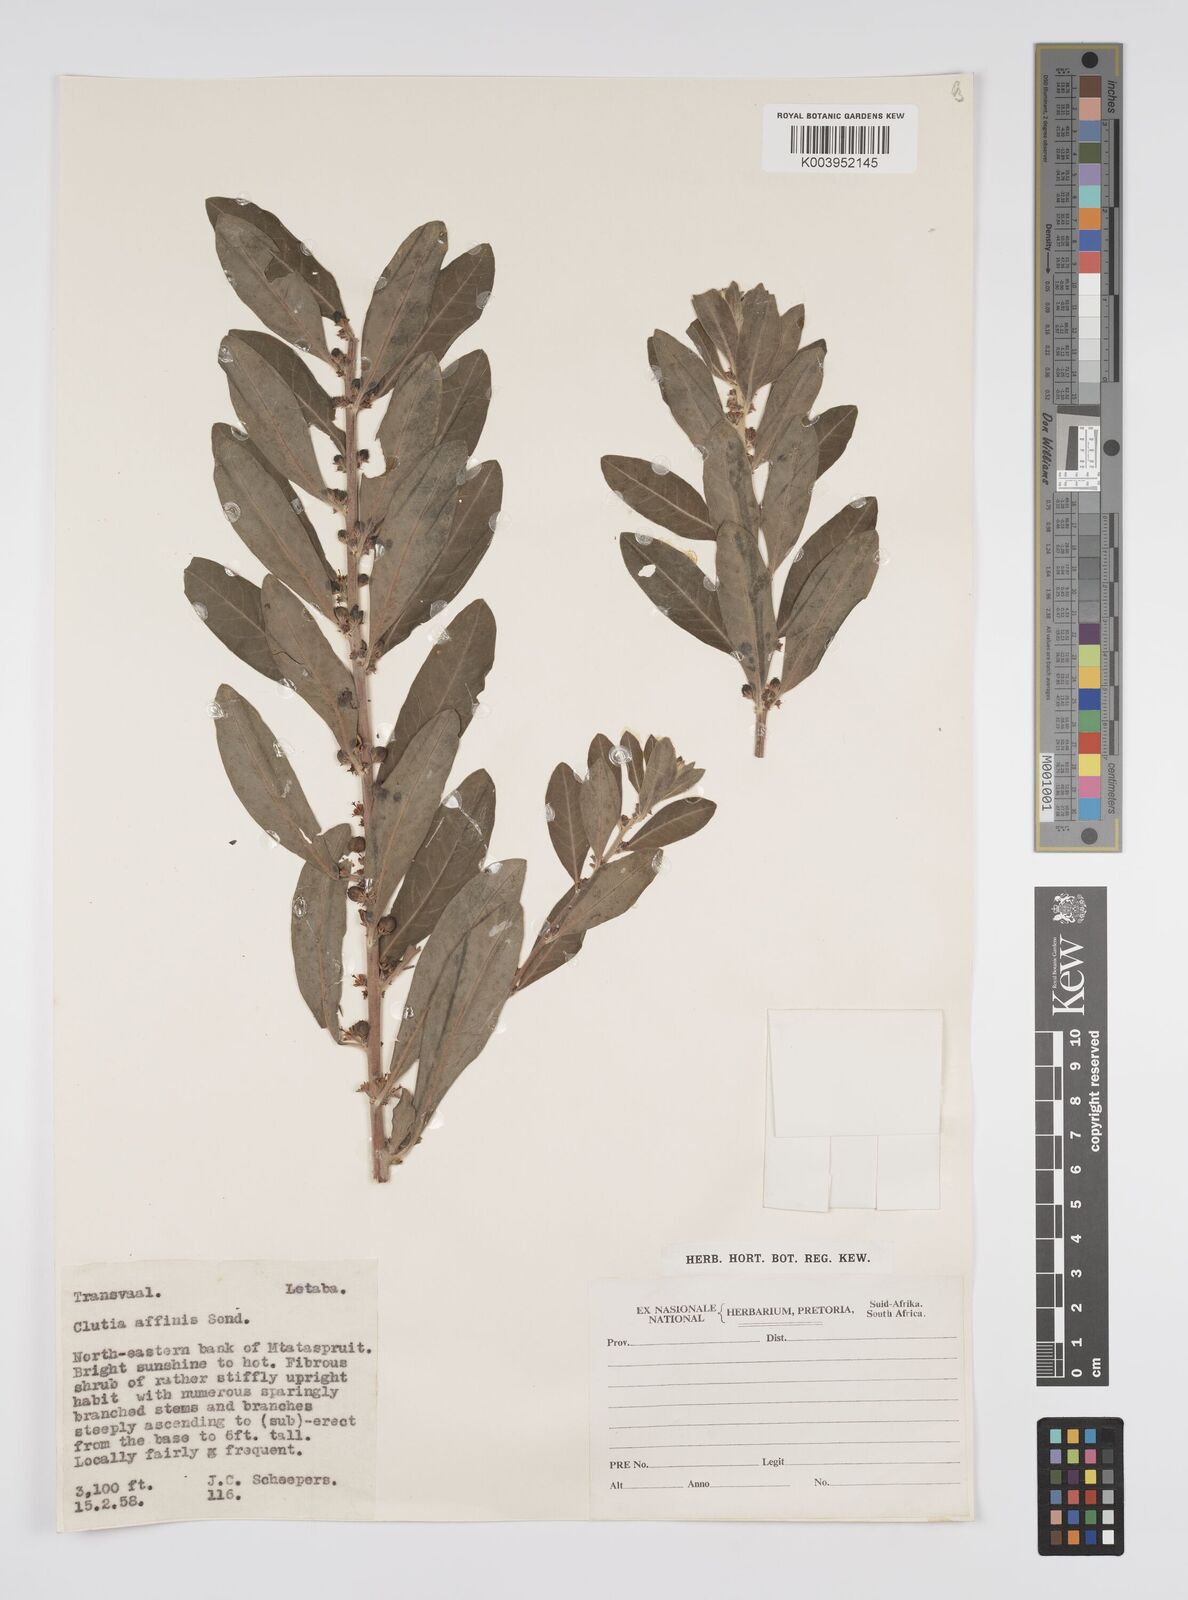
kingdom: Plantae
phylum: Tracheophyta
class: Magnoliopsida
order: Malpighiales
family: Peraceae
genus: Clutia
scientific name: Clutia affinis
